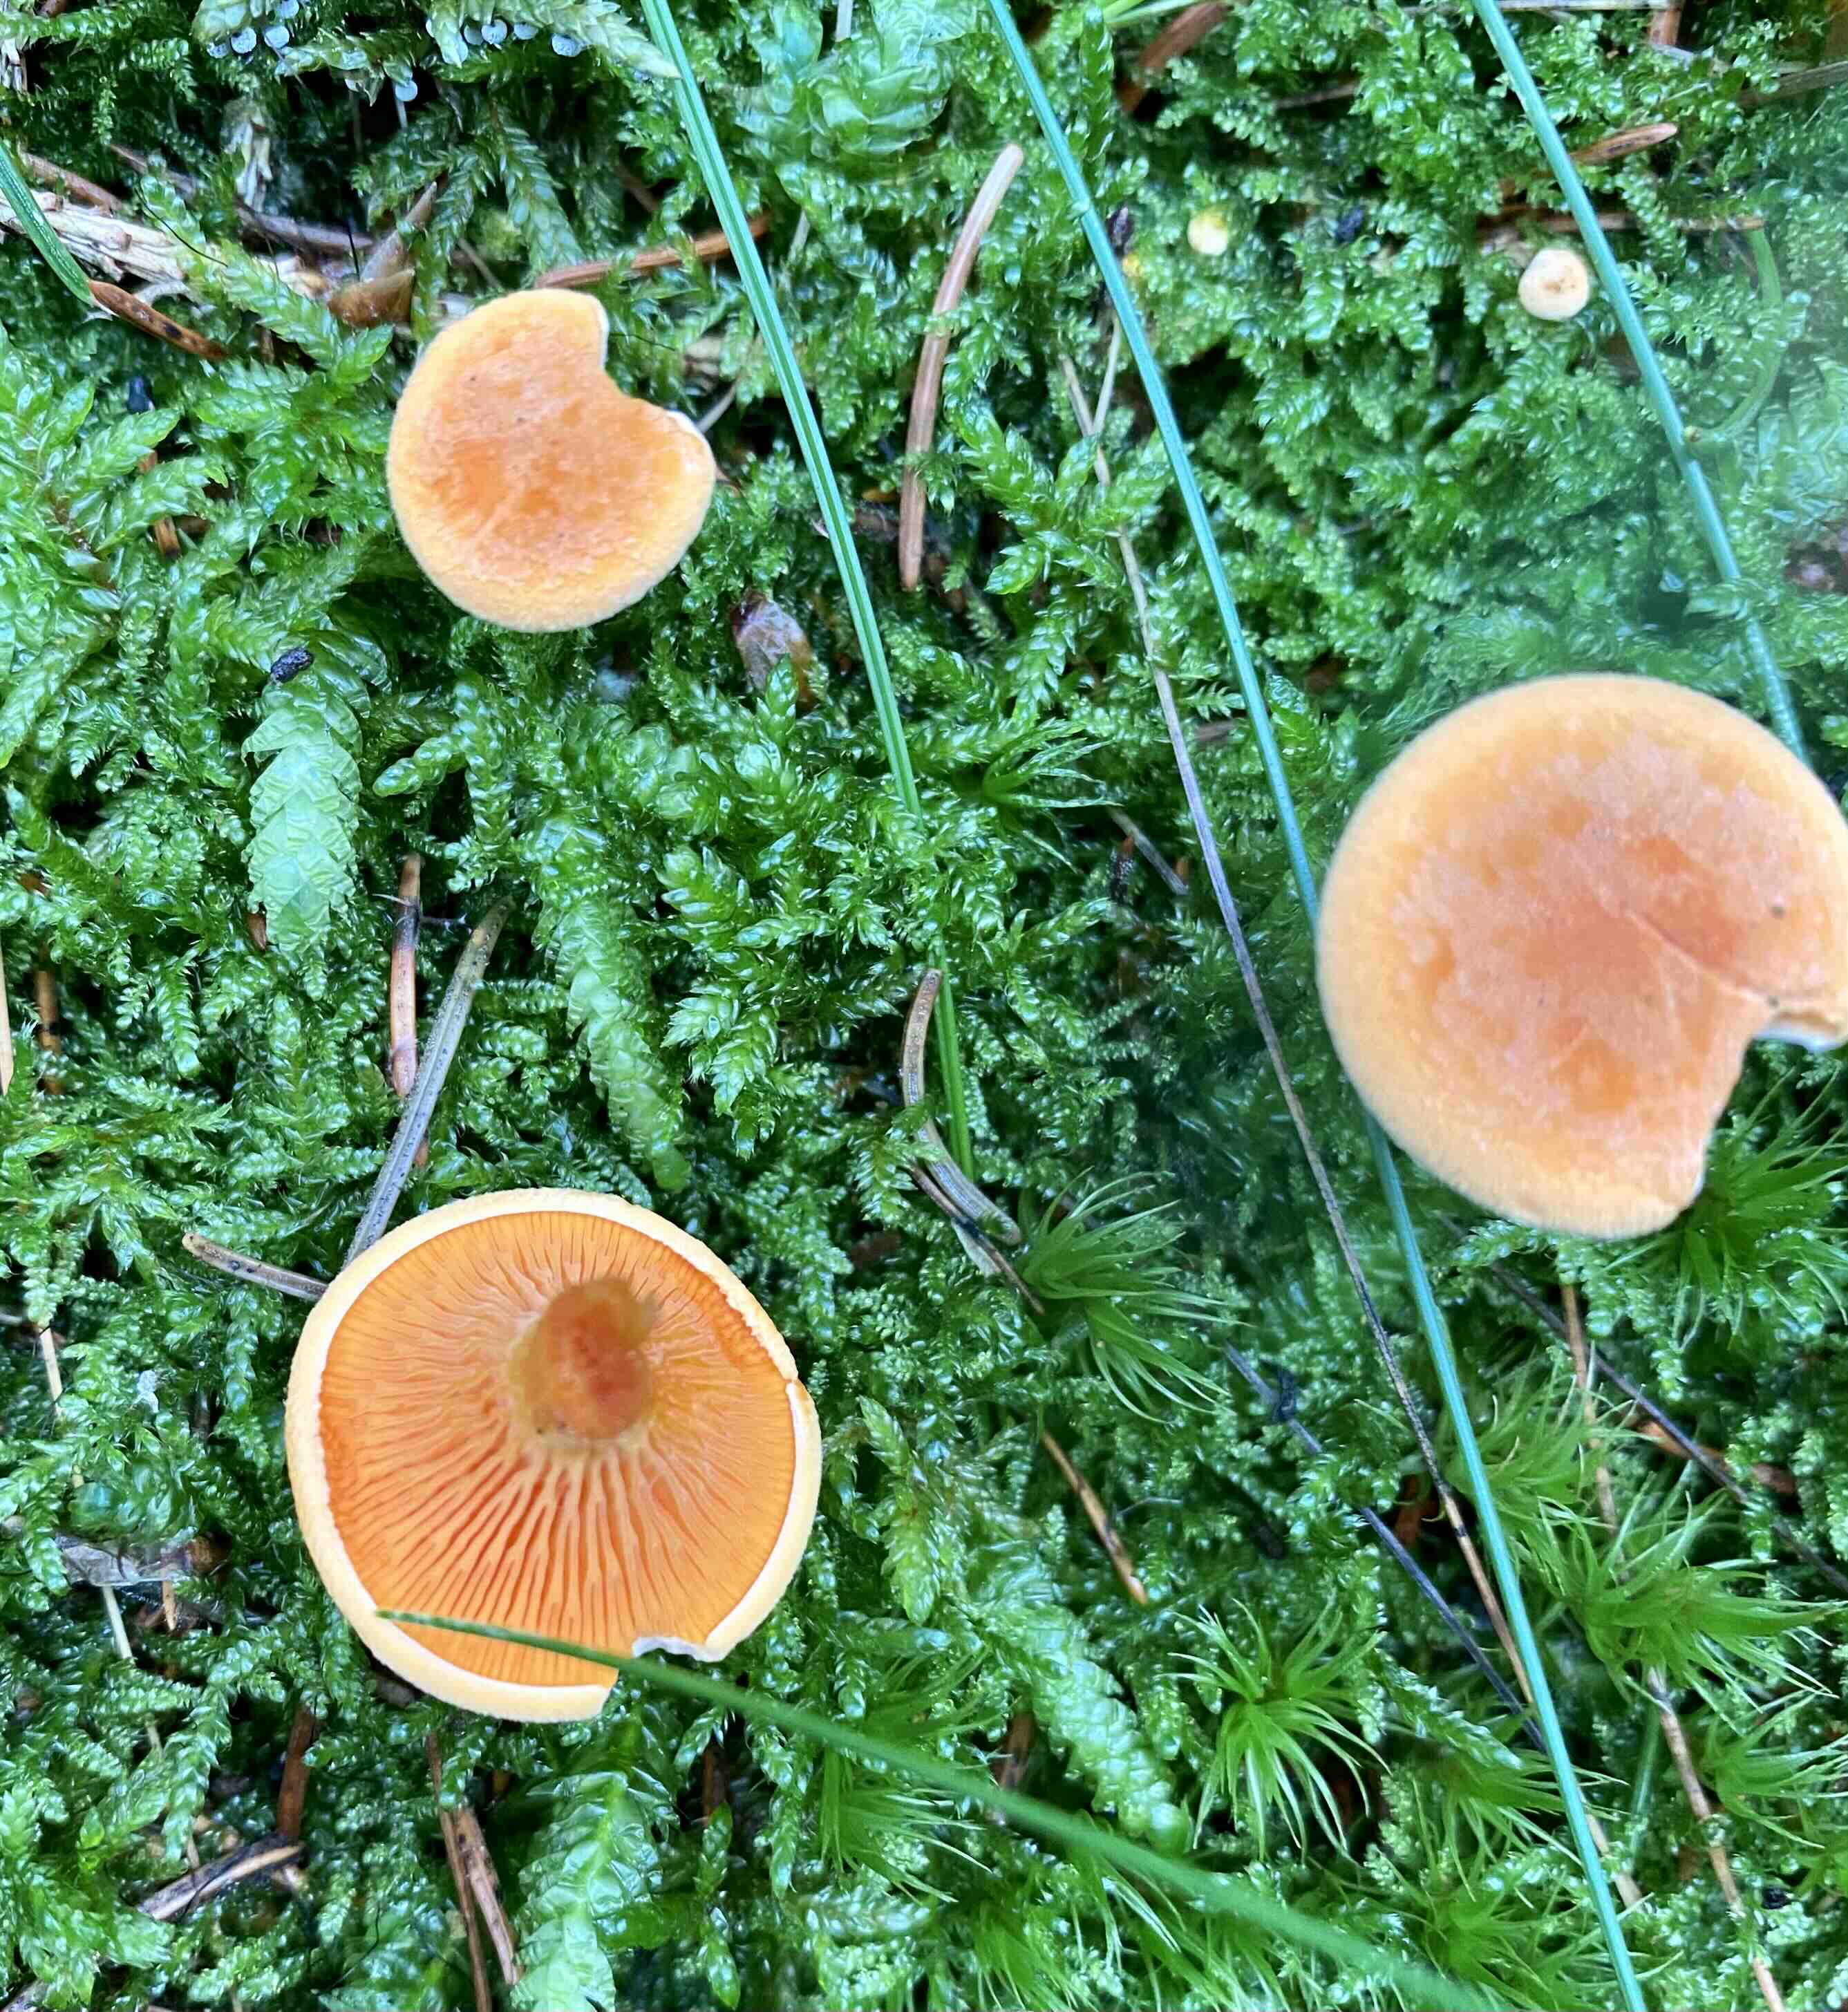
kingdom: Fungi
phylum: Basidiomycota
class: Agaricomycetes
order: Boletales
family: Hygrophoropsidaceae
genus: Hygrophoropsis
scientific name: Hygrophoropsis aurantiaca
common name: almindelig orangekantarel
